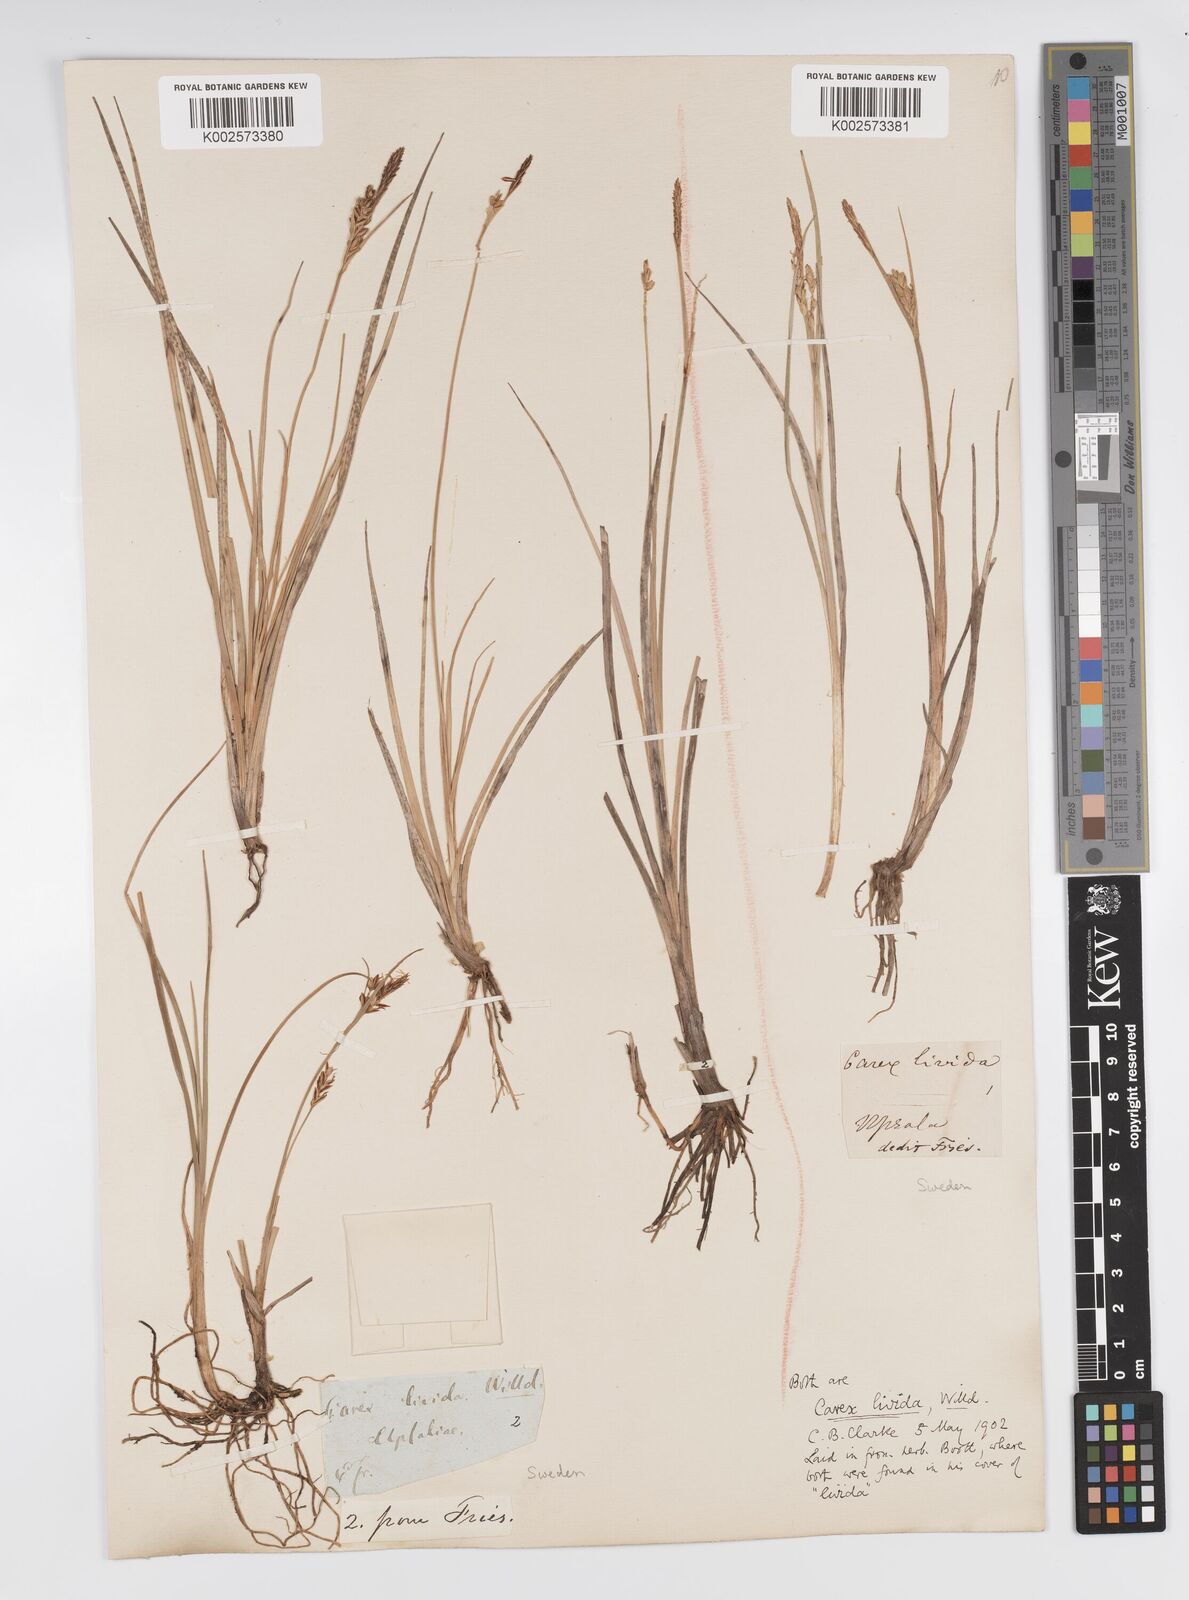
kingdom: Plantae
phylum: Tracheophyta
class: Liliopsida
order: Poales
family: Cyperaceae
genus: Carex
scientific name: Carex livida
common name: Livid sedge
